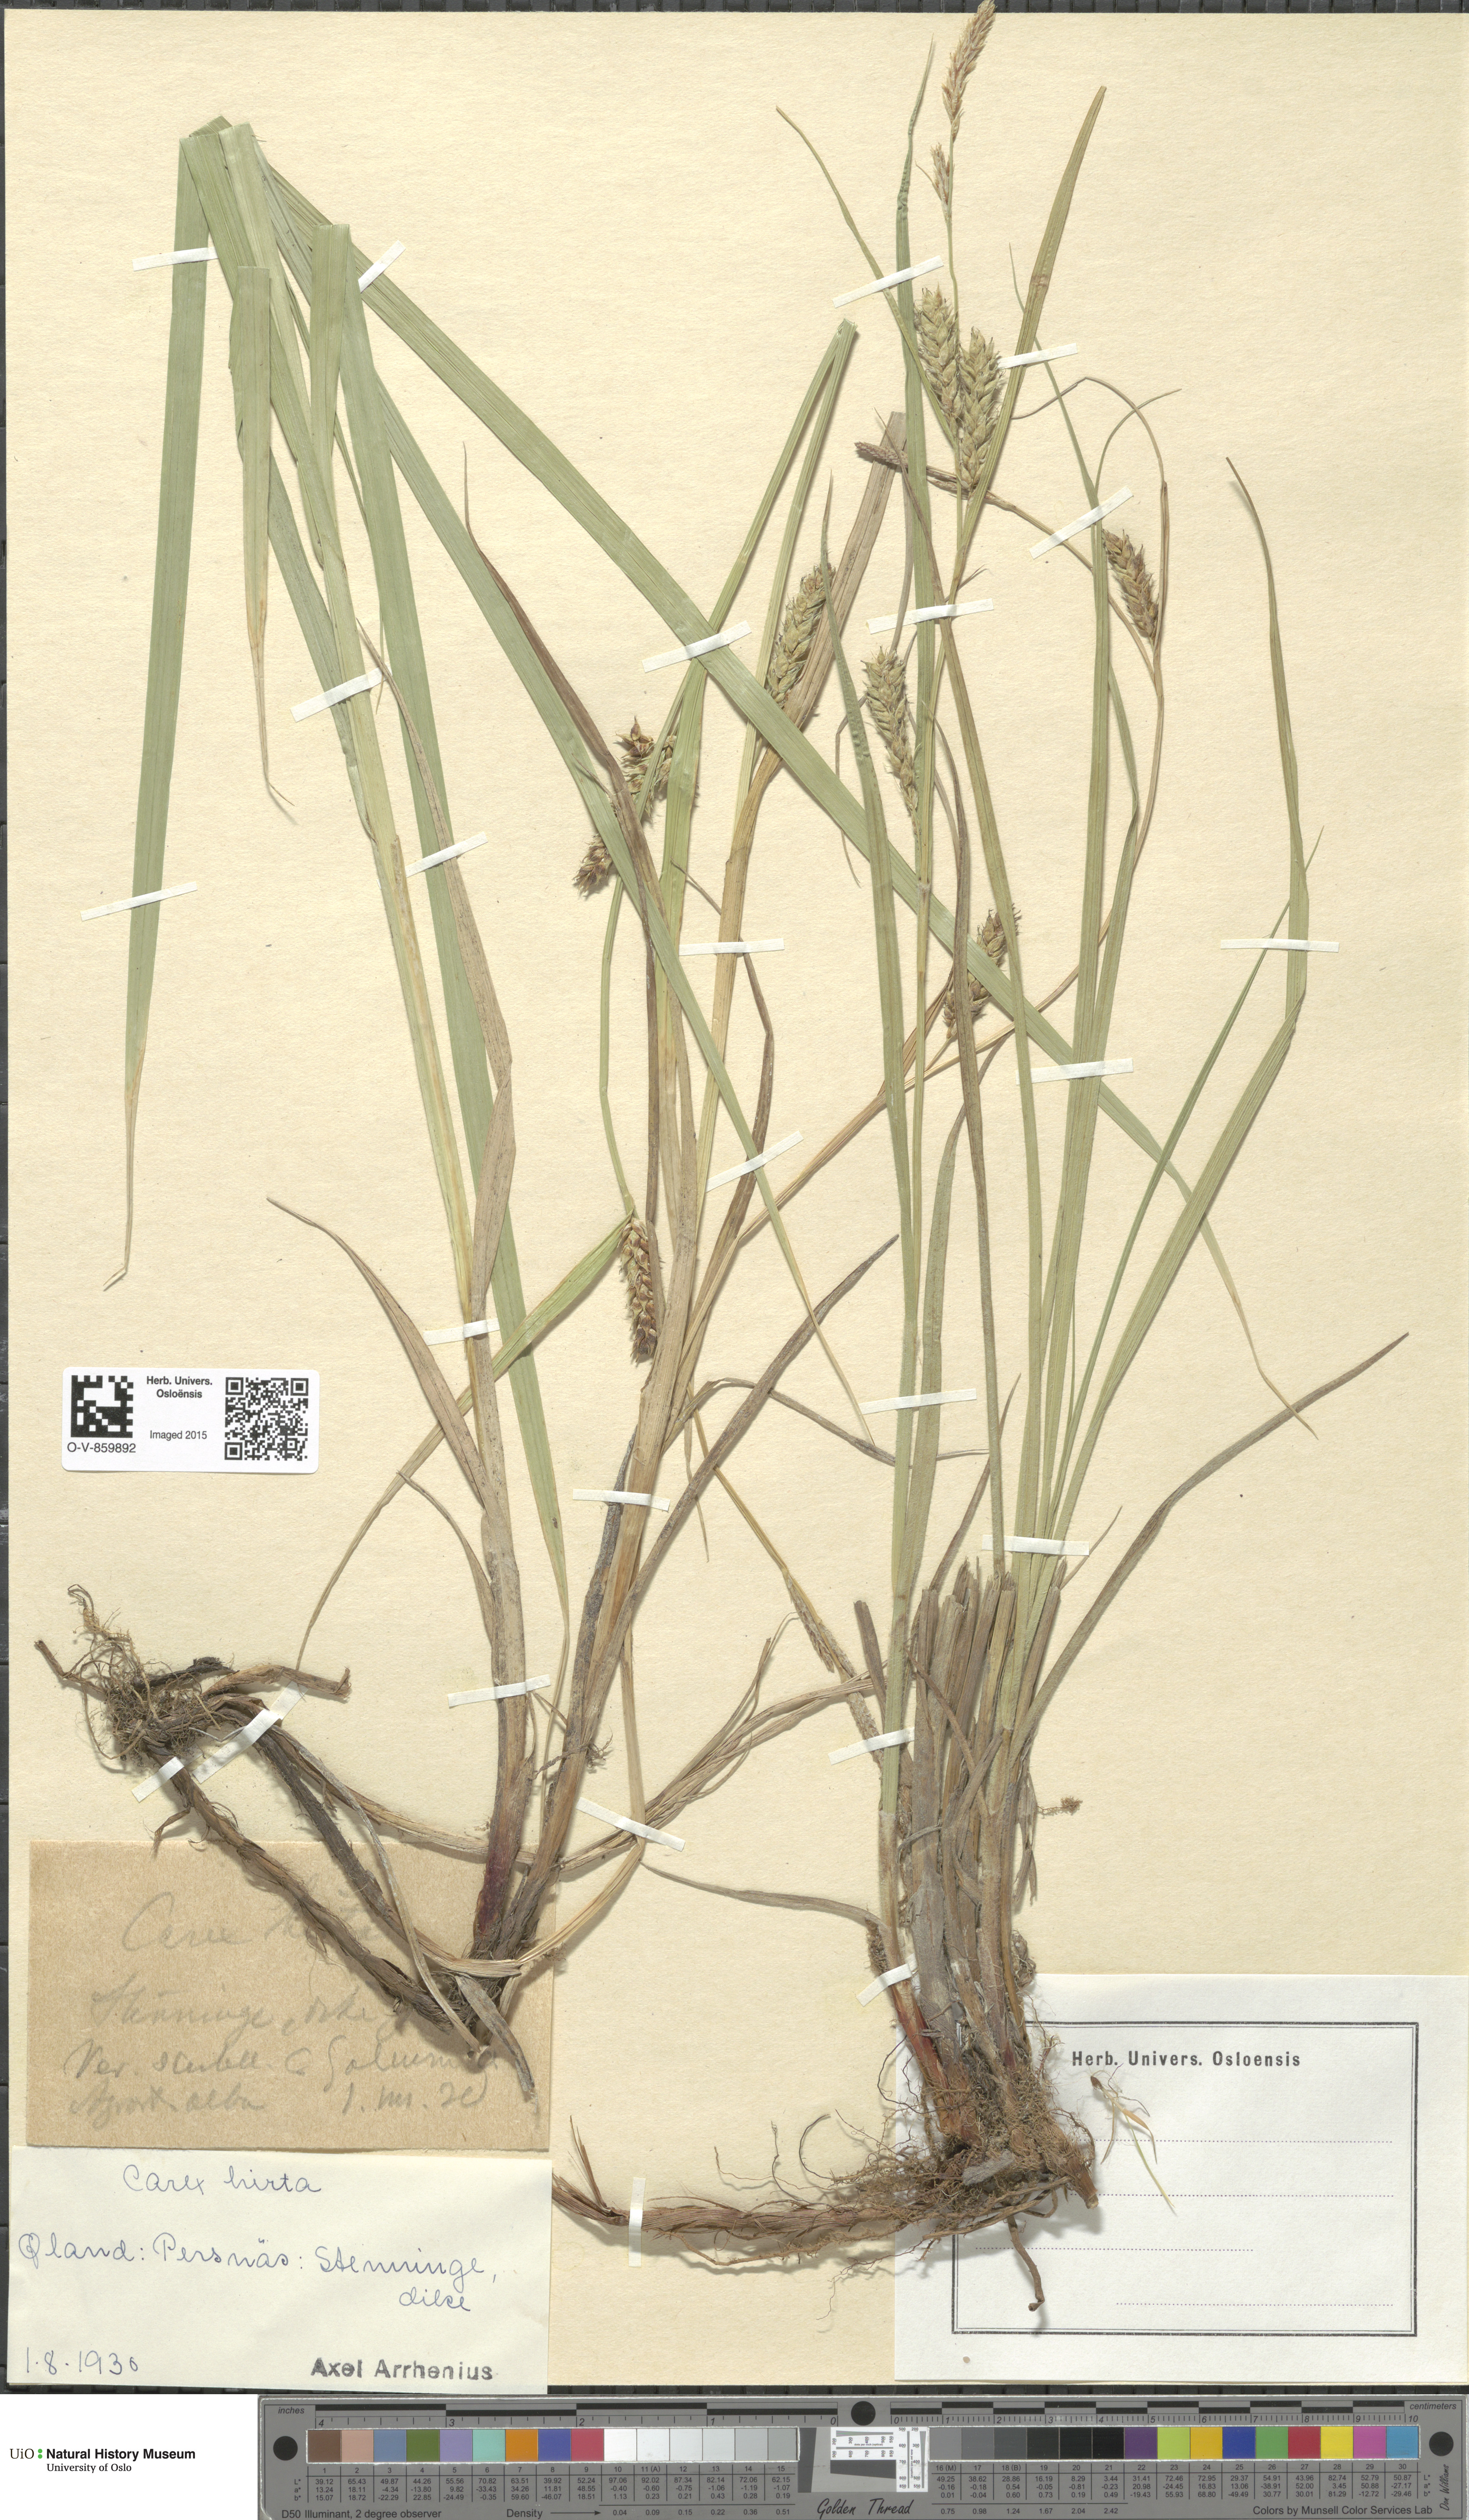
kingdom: Plantae
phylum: Tracheophyta
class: Liliopsida
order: Poales
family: Cyperaceae
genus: Carex
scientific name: Carex hirta
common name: Hairy sedge
